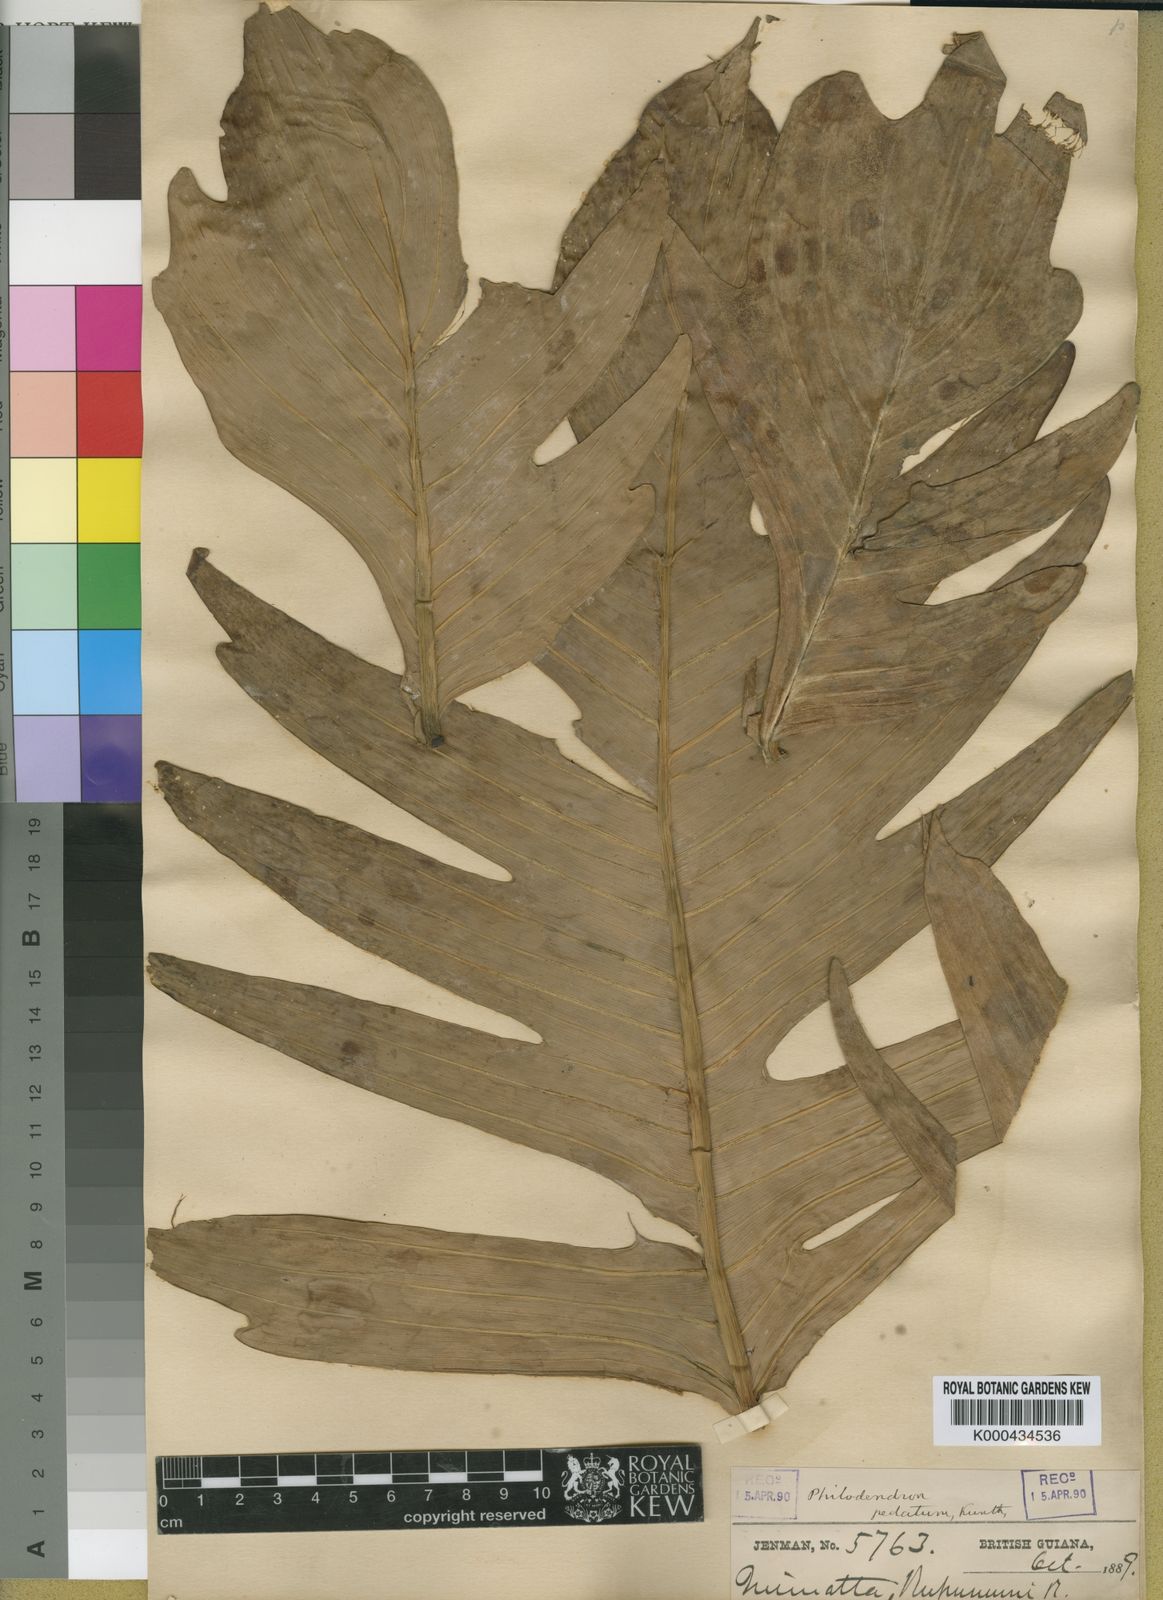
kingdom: Plantae
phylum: Tracheophyta
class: Liliopsida
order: Alismatales
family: Araceae
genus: Philodendron
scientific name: Philodendron pedatum
